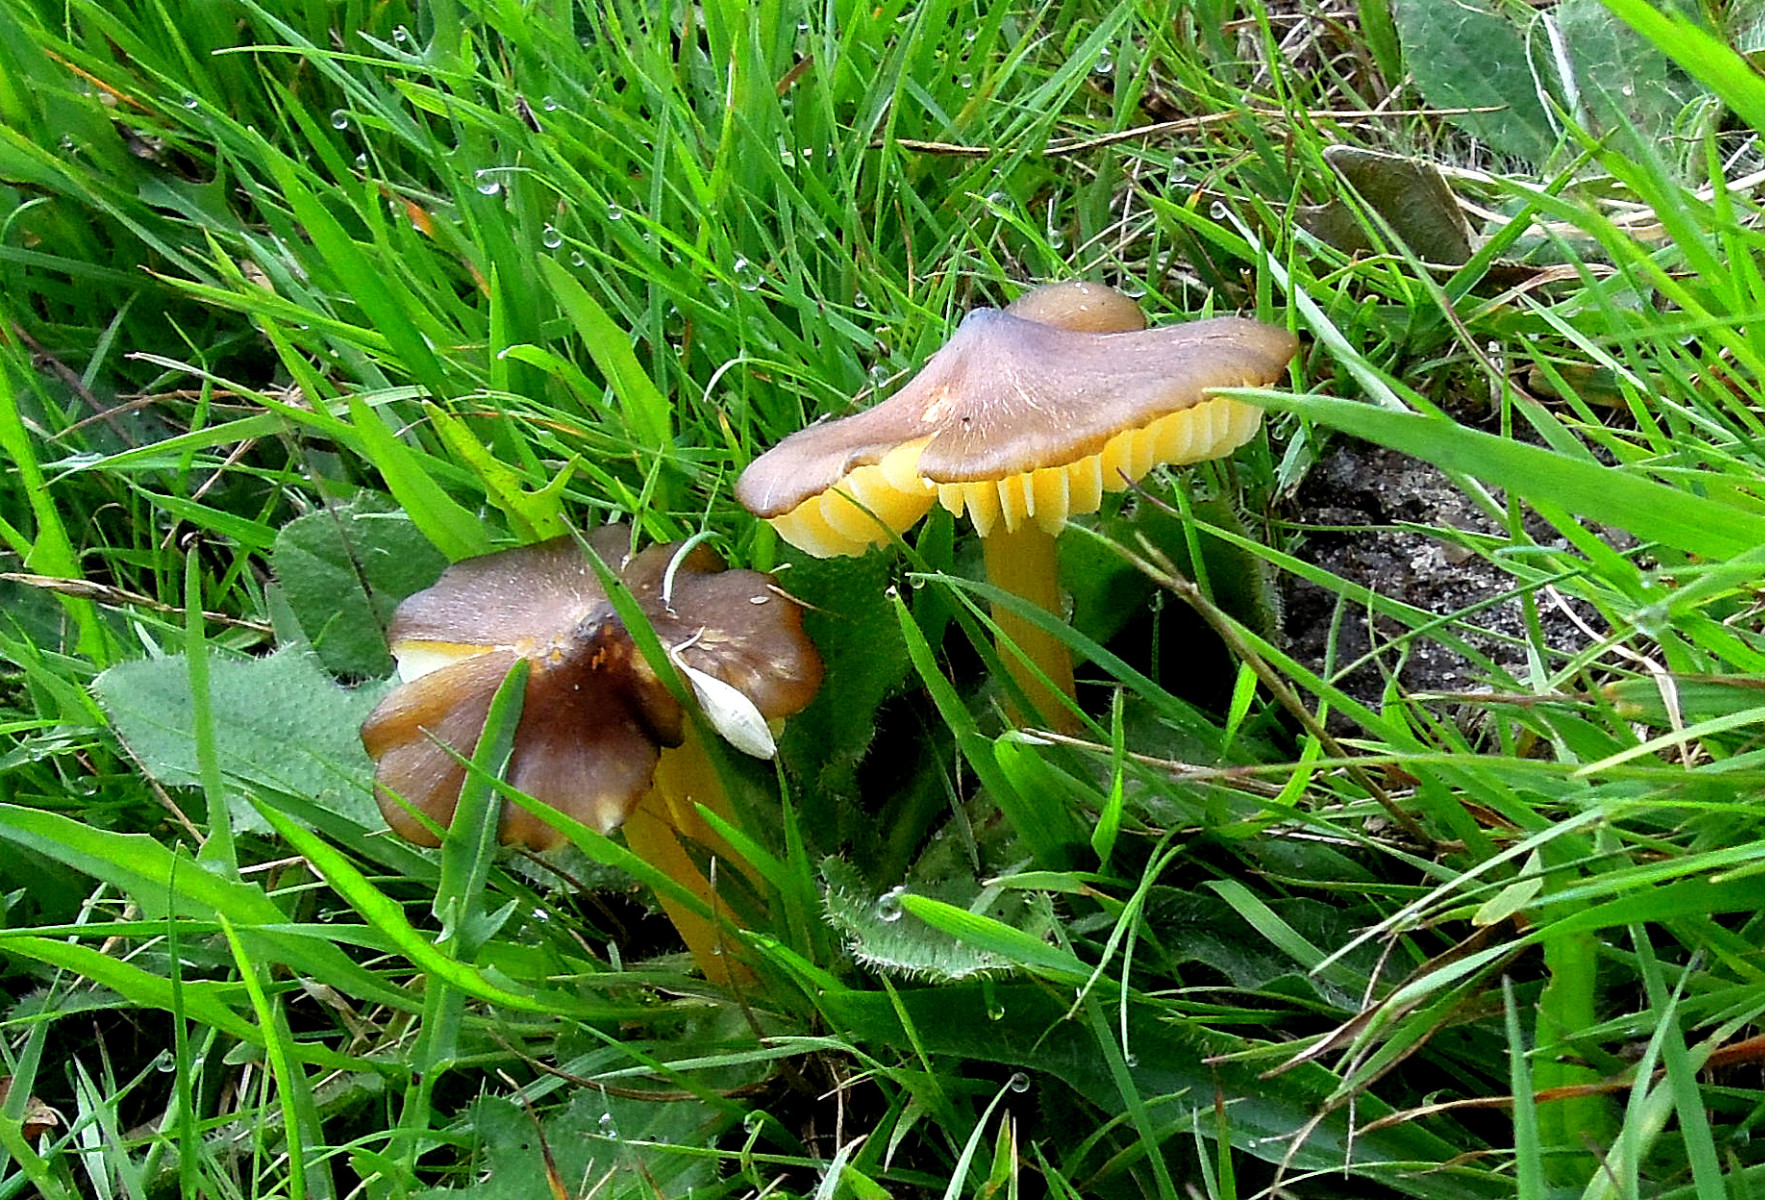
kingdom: Fungi
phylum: Basidiomycota
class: Agaricomycetes
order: Agaricales
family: Hygrophoraceae
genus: Hygrocybe
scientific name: Hygrocybe spadicea
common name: daddelbrun vokshat
